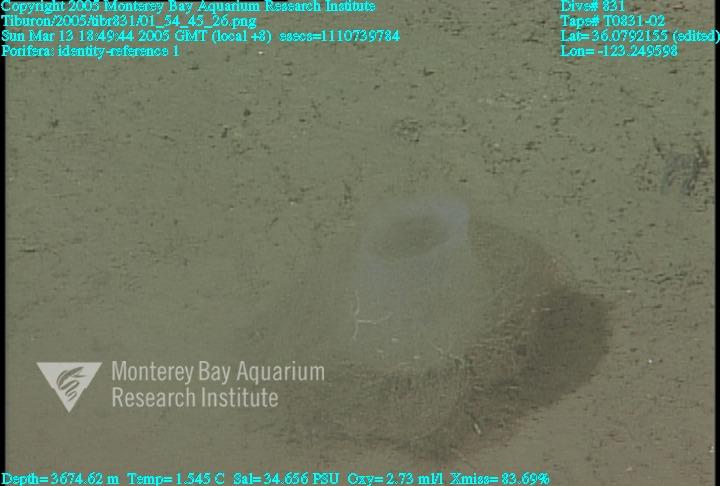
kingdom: Animalia
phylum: Porifera
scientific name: Porifera
